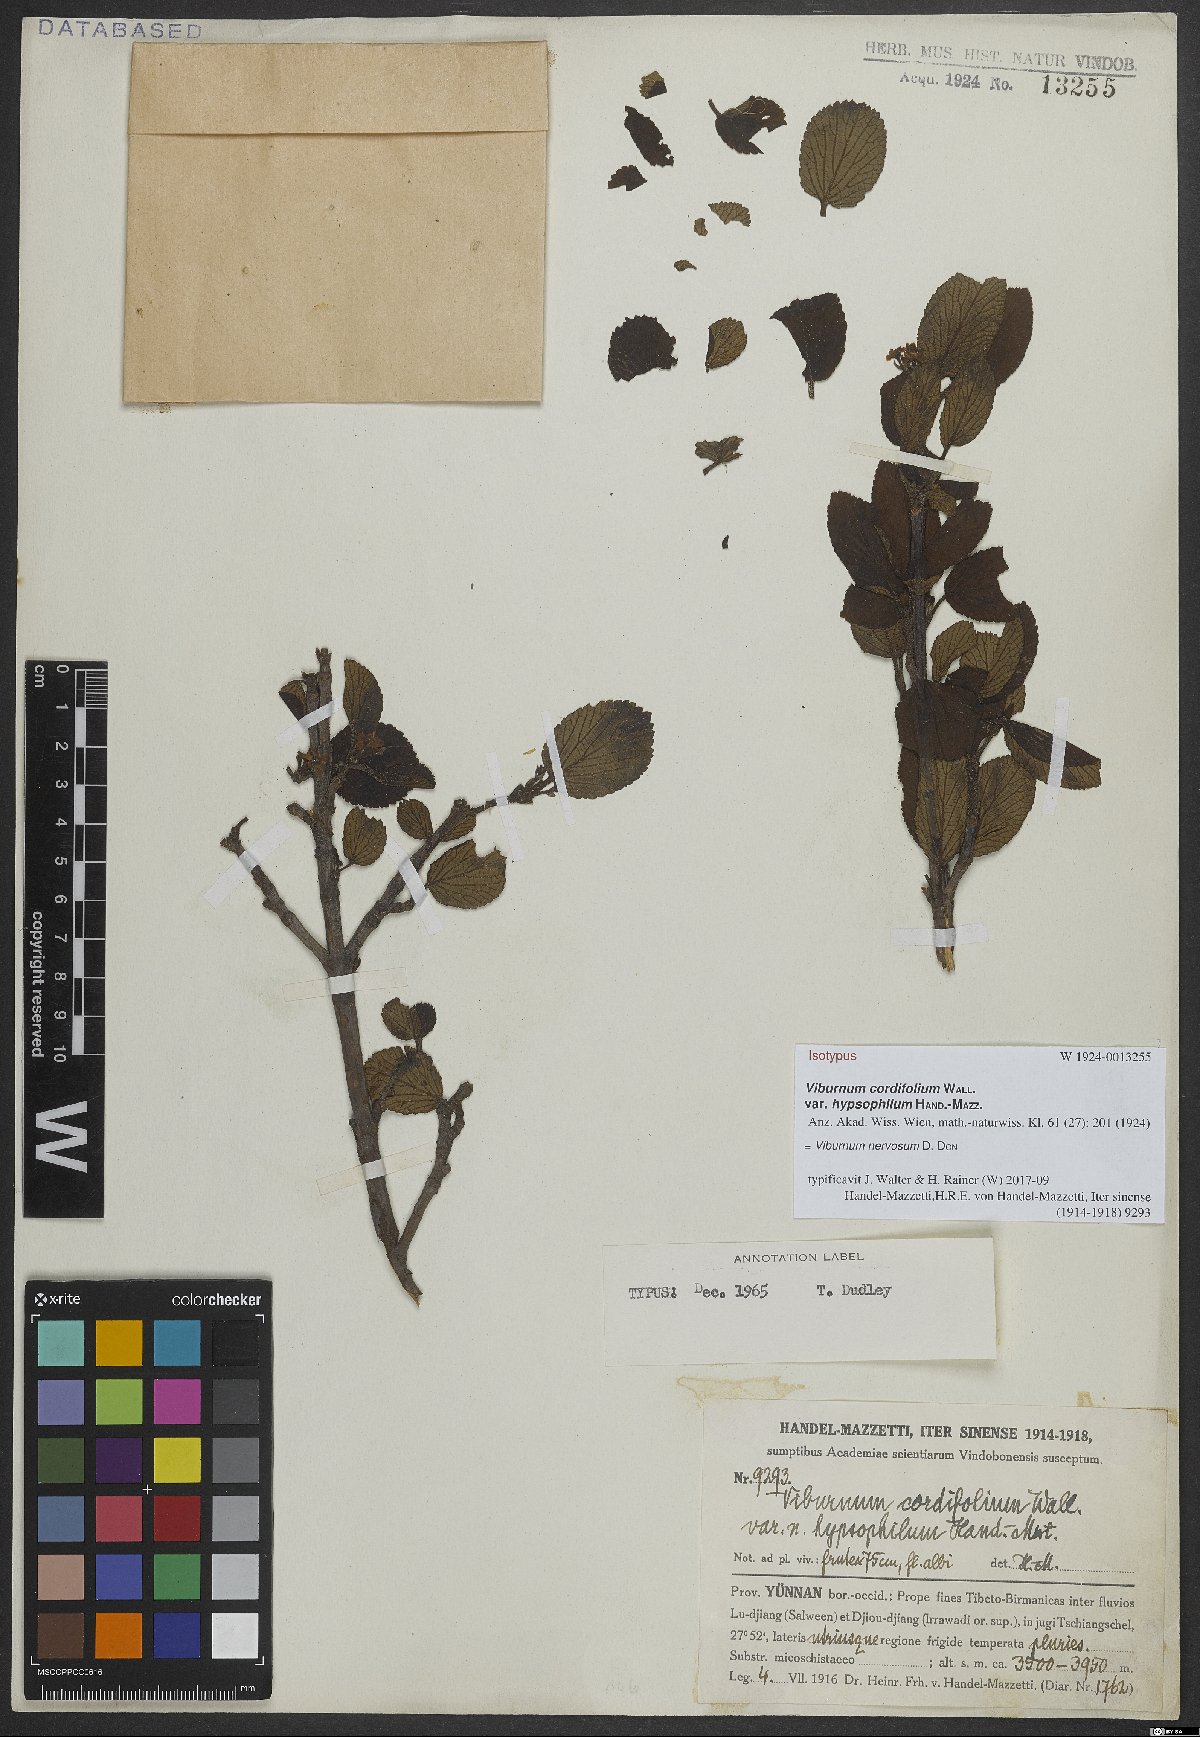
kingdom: Plantae
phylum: Tracheophyta
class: Magnoliopsida
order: Dipsacales
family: Viburnaceae
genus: Viburnum
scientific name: Viburnum nervosum
